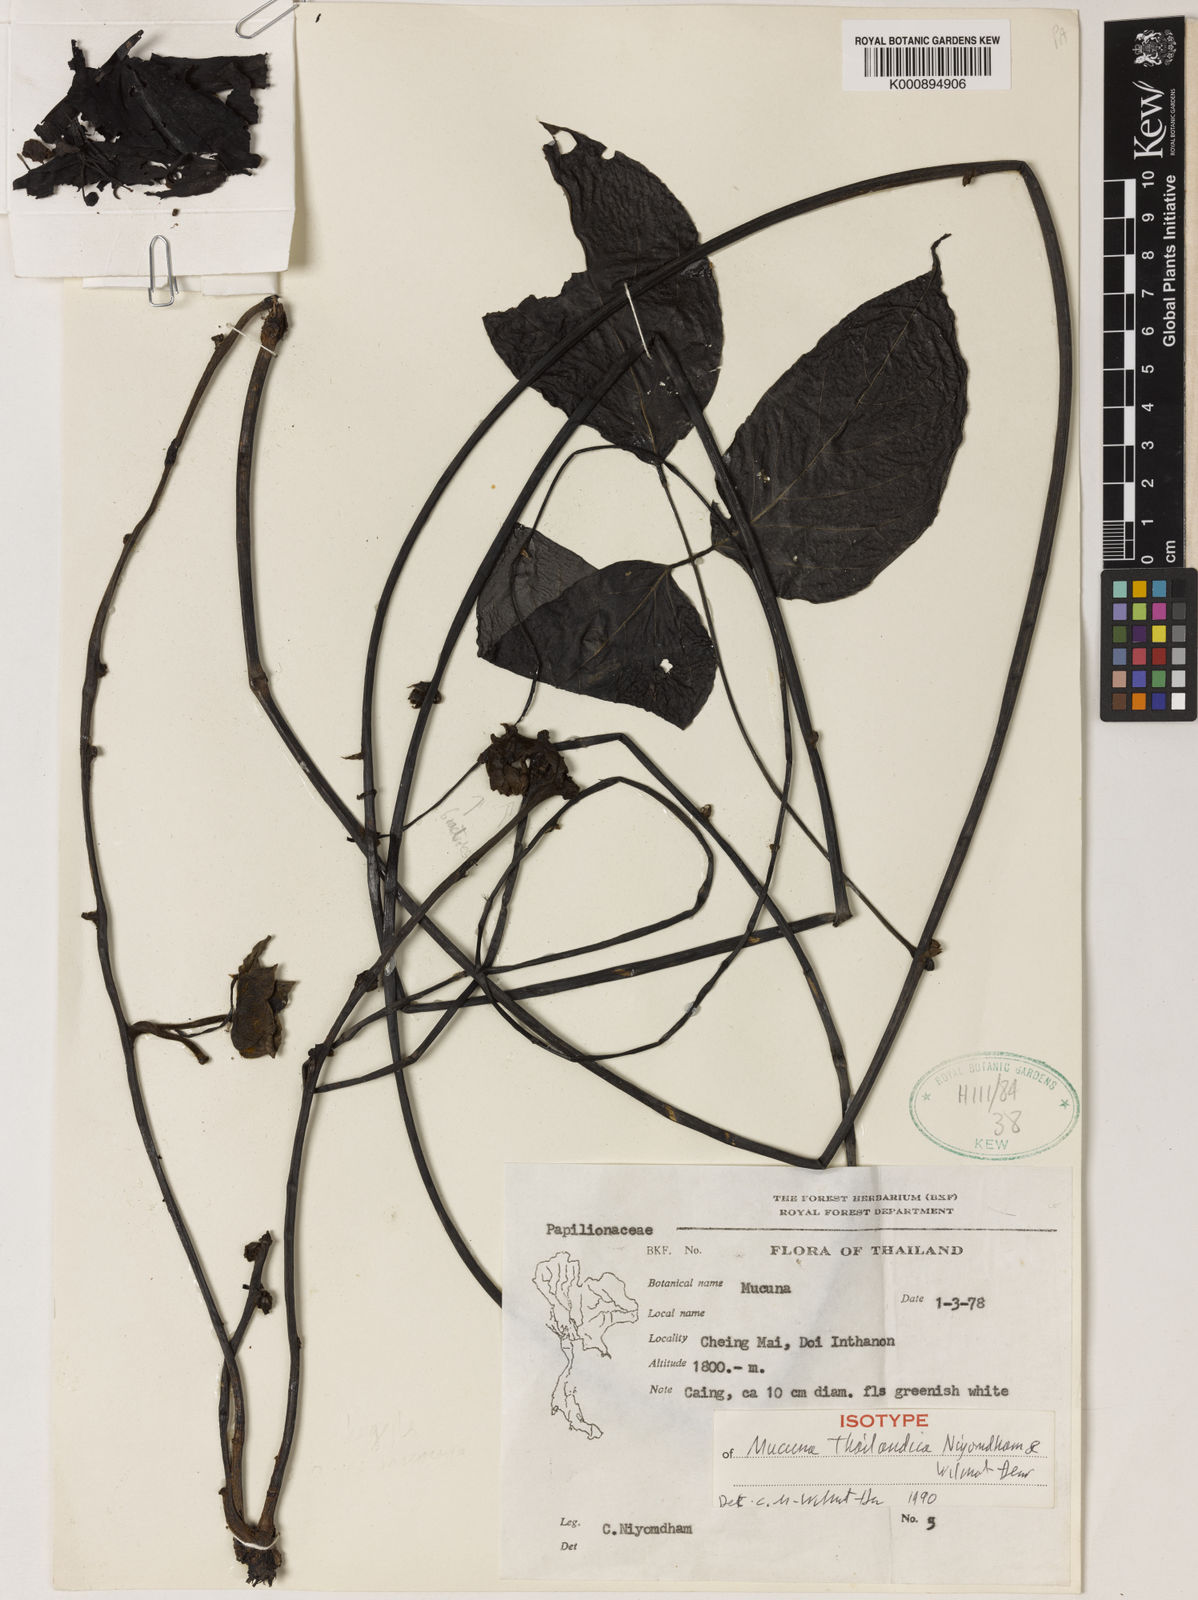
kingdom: Plantae
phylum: Tracheophyta
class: Magnoliopsida
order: Fabales
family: Fabaceae
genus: Mucuna
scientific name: Mucuna thailandica
